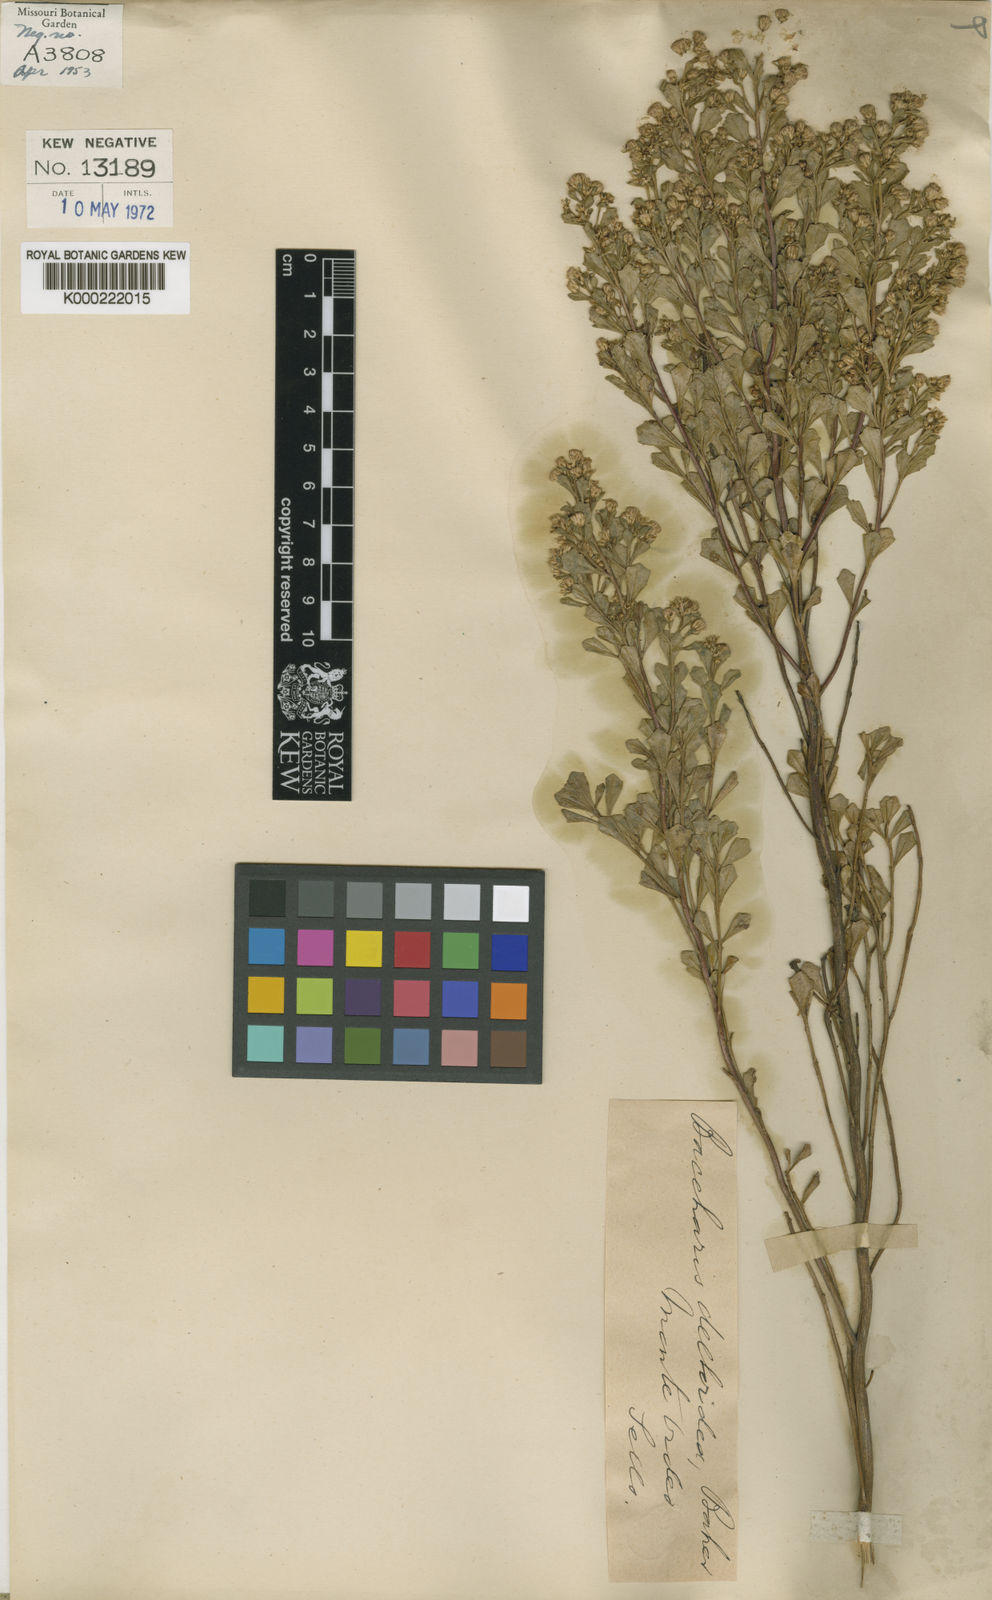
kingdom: Plantae
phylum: Tracheophyta
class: Magnoliopsida
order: Asterales
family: Asteraceae
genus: Baccharis
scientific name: Baccharis deltoidea
